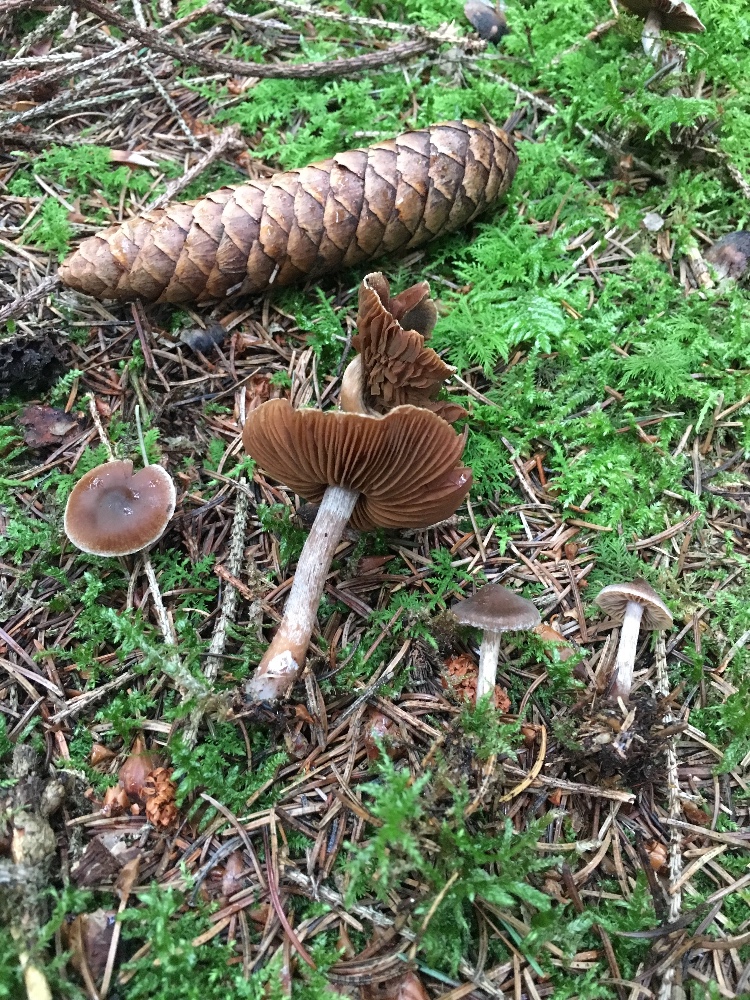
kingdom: Fungi
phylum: Basidiomycota
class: Agaricomycetes
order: Agaricales
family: Cortinariaceae
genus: Cortinarius
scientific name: Cortinarius
